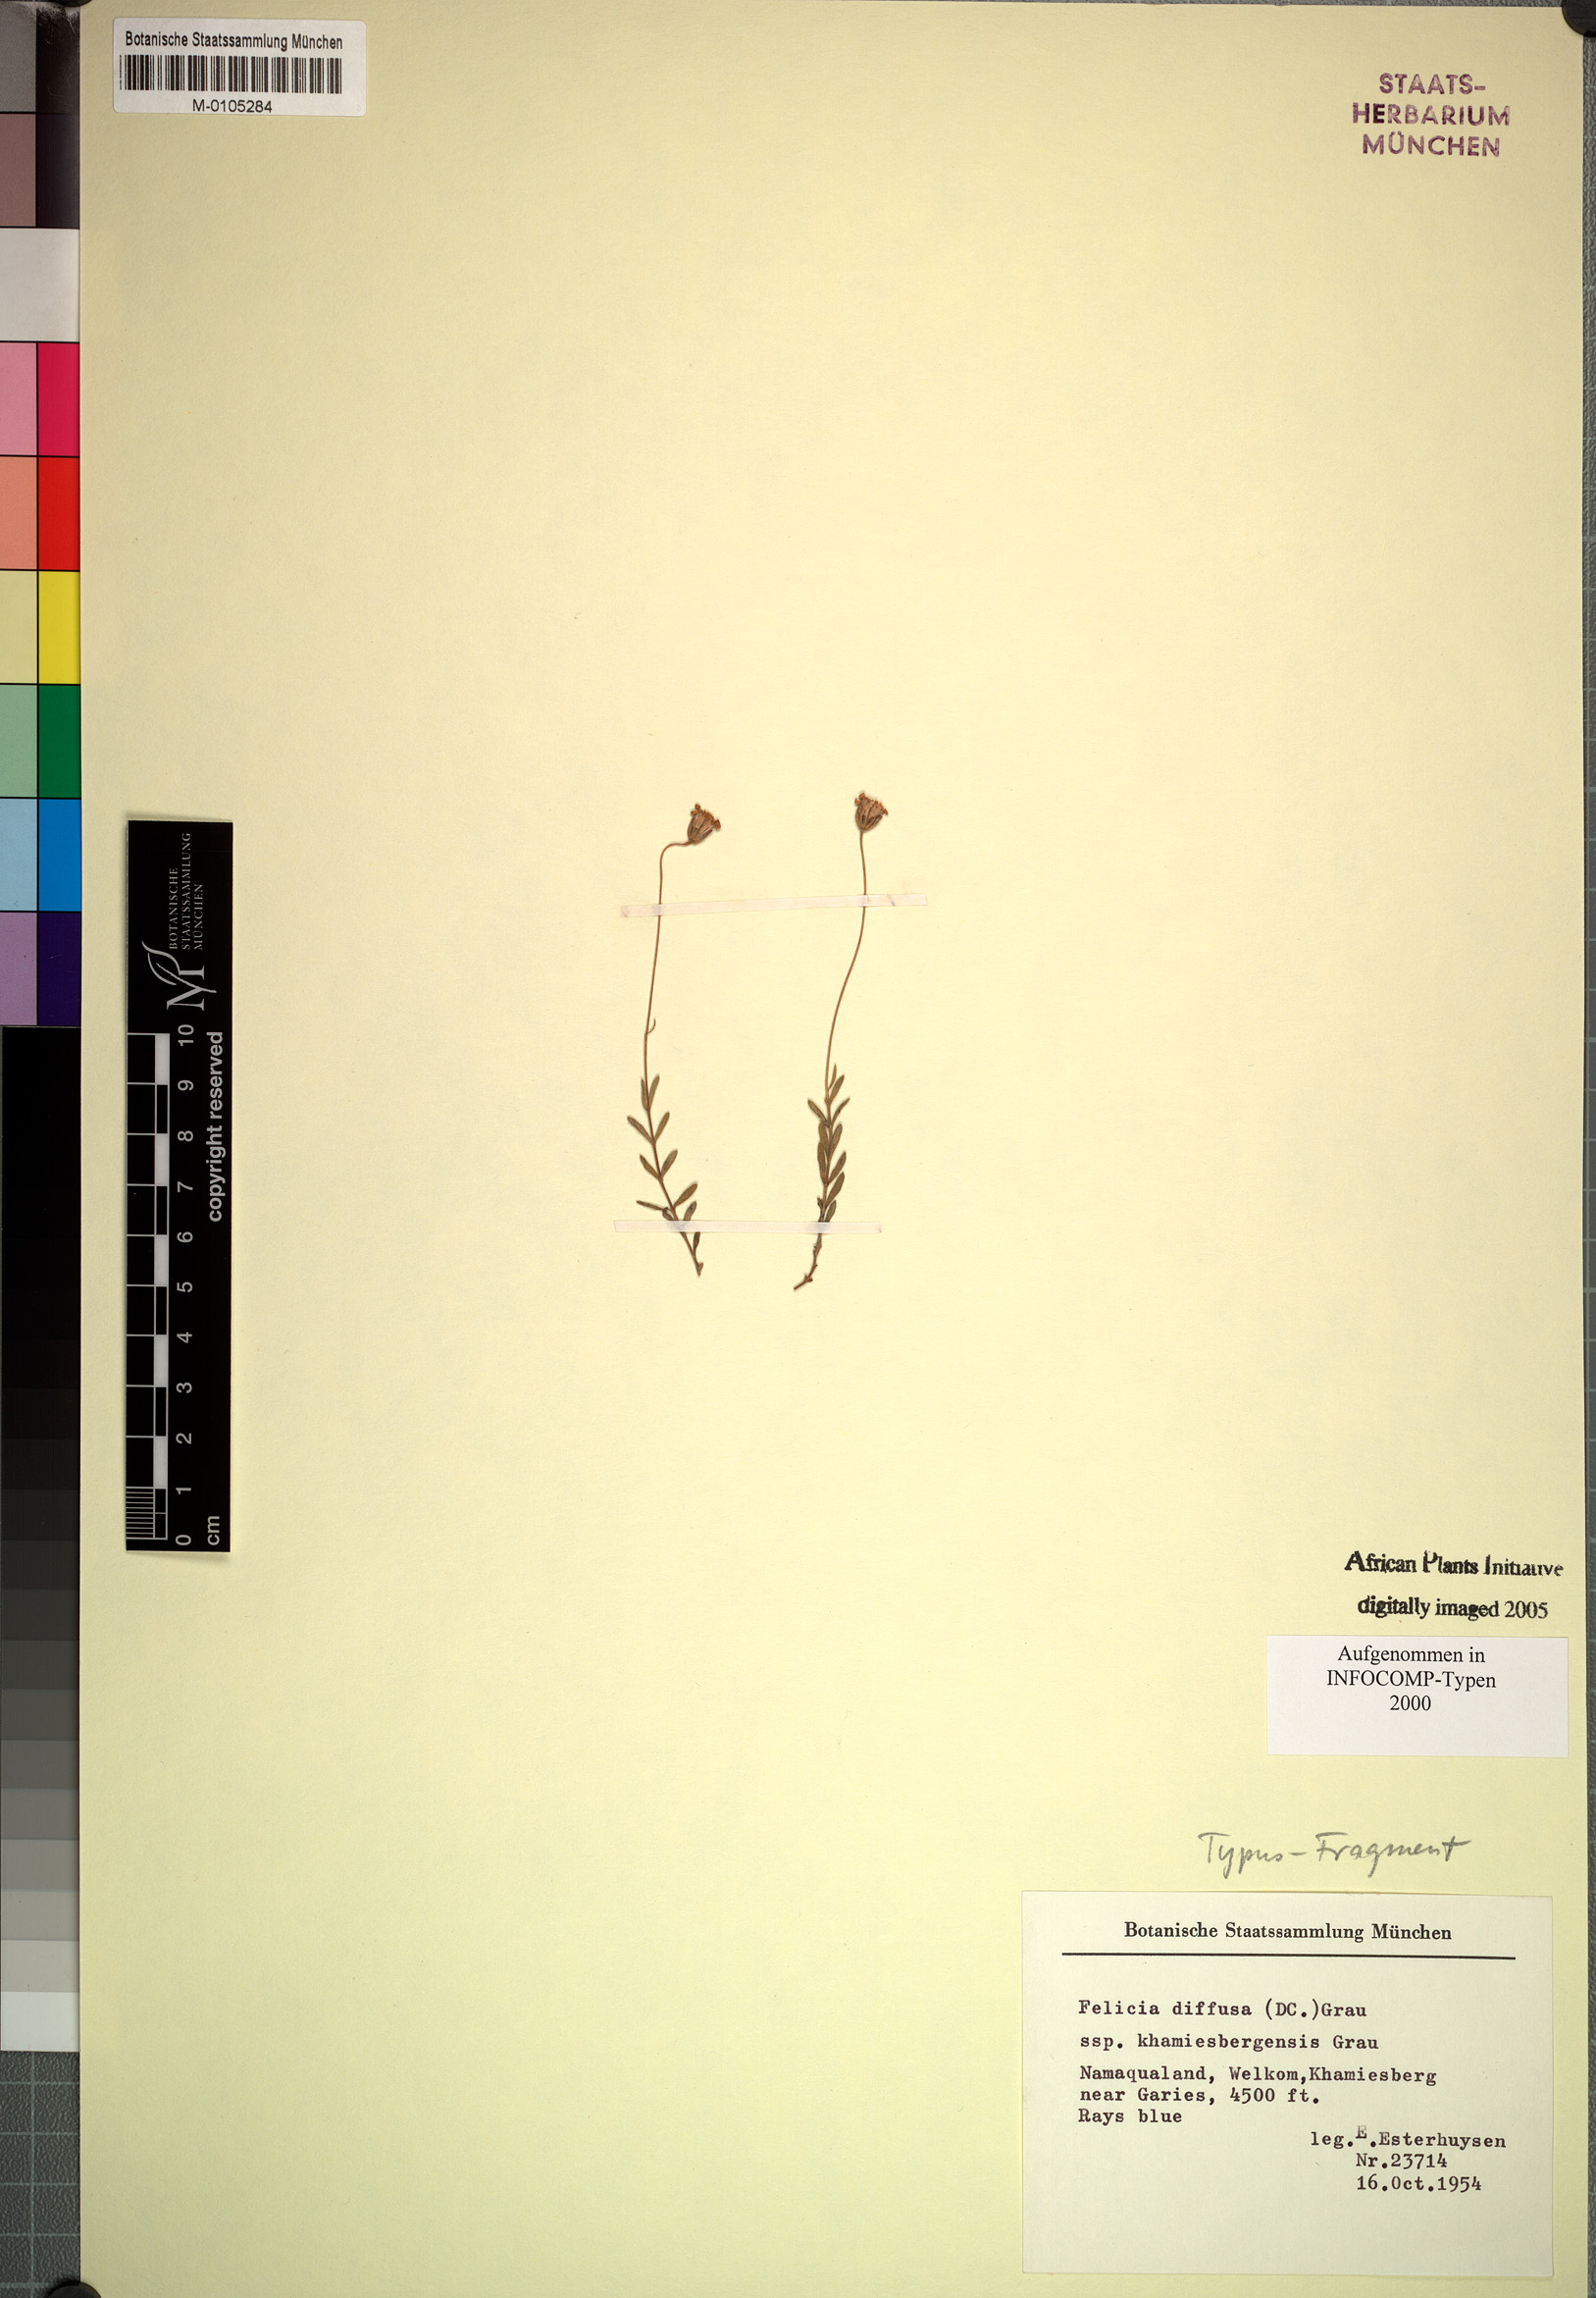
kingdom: Plantae
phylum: Tracheophyta
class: Magnoliopsida
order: Asterales
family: Asteraceae
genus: Felicia
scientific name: Felicia diffusa
